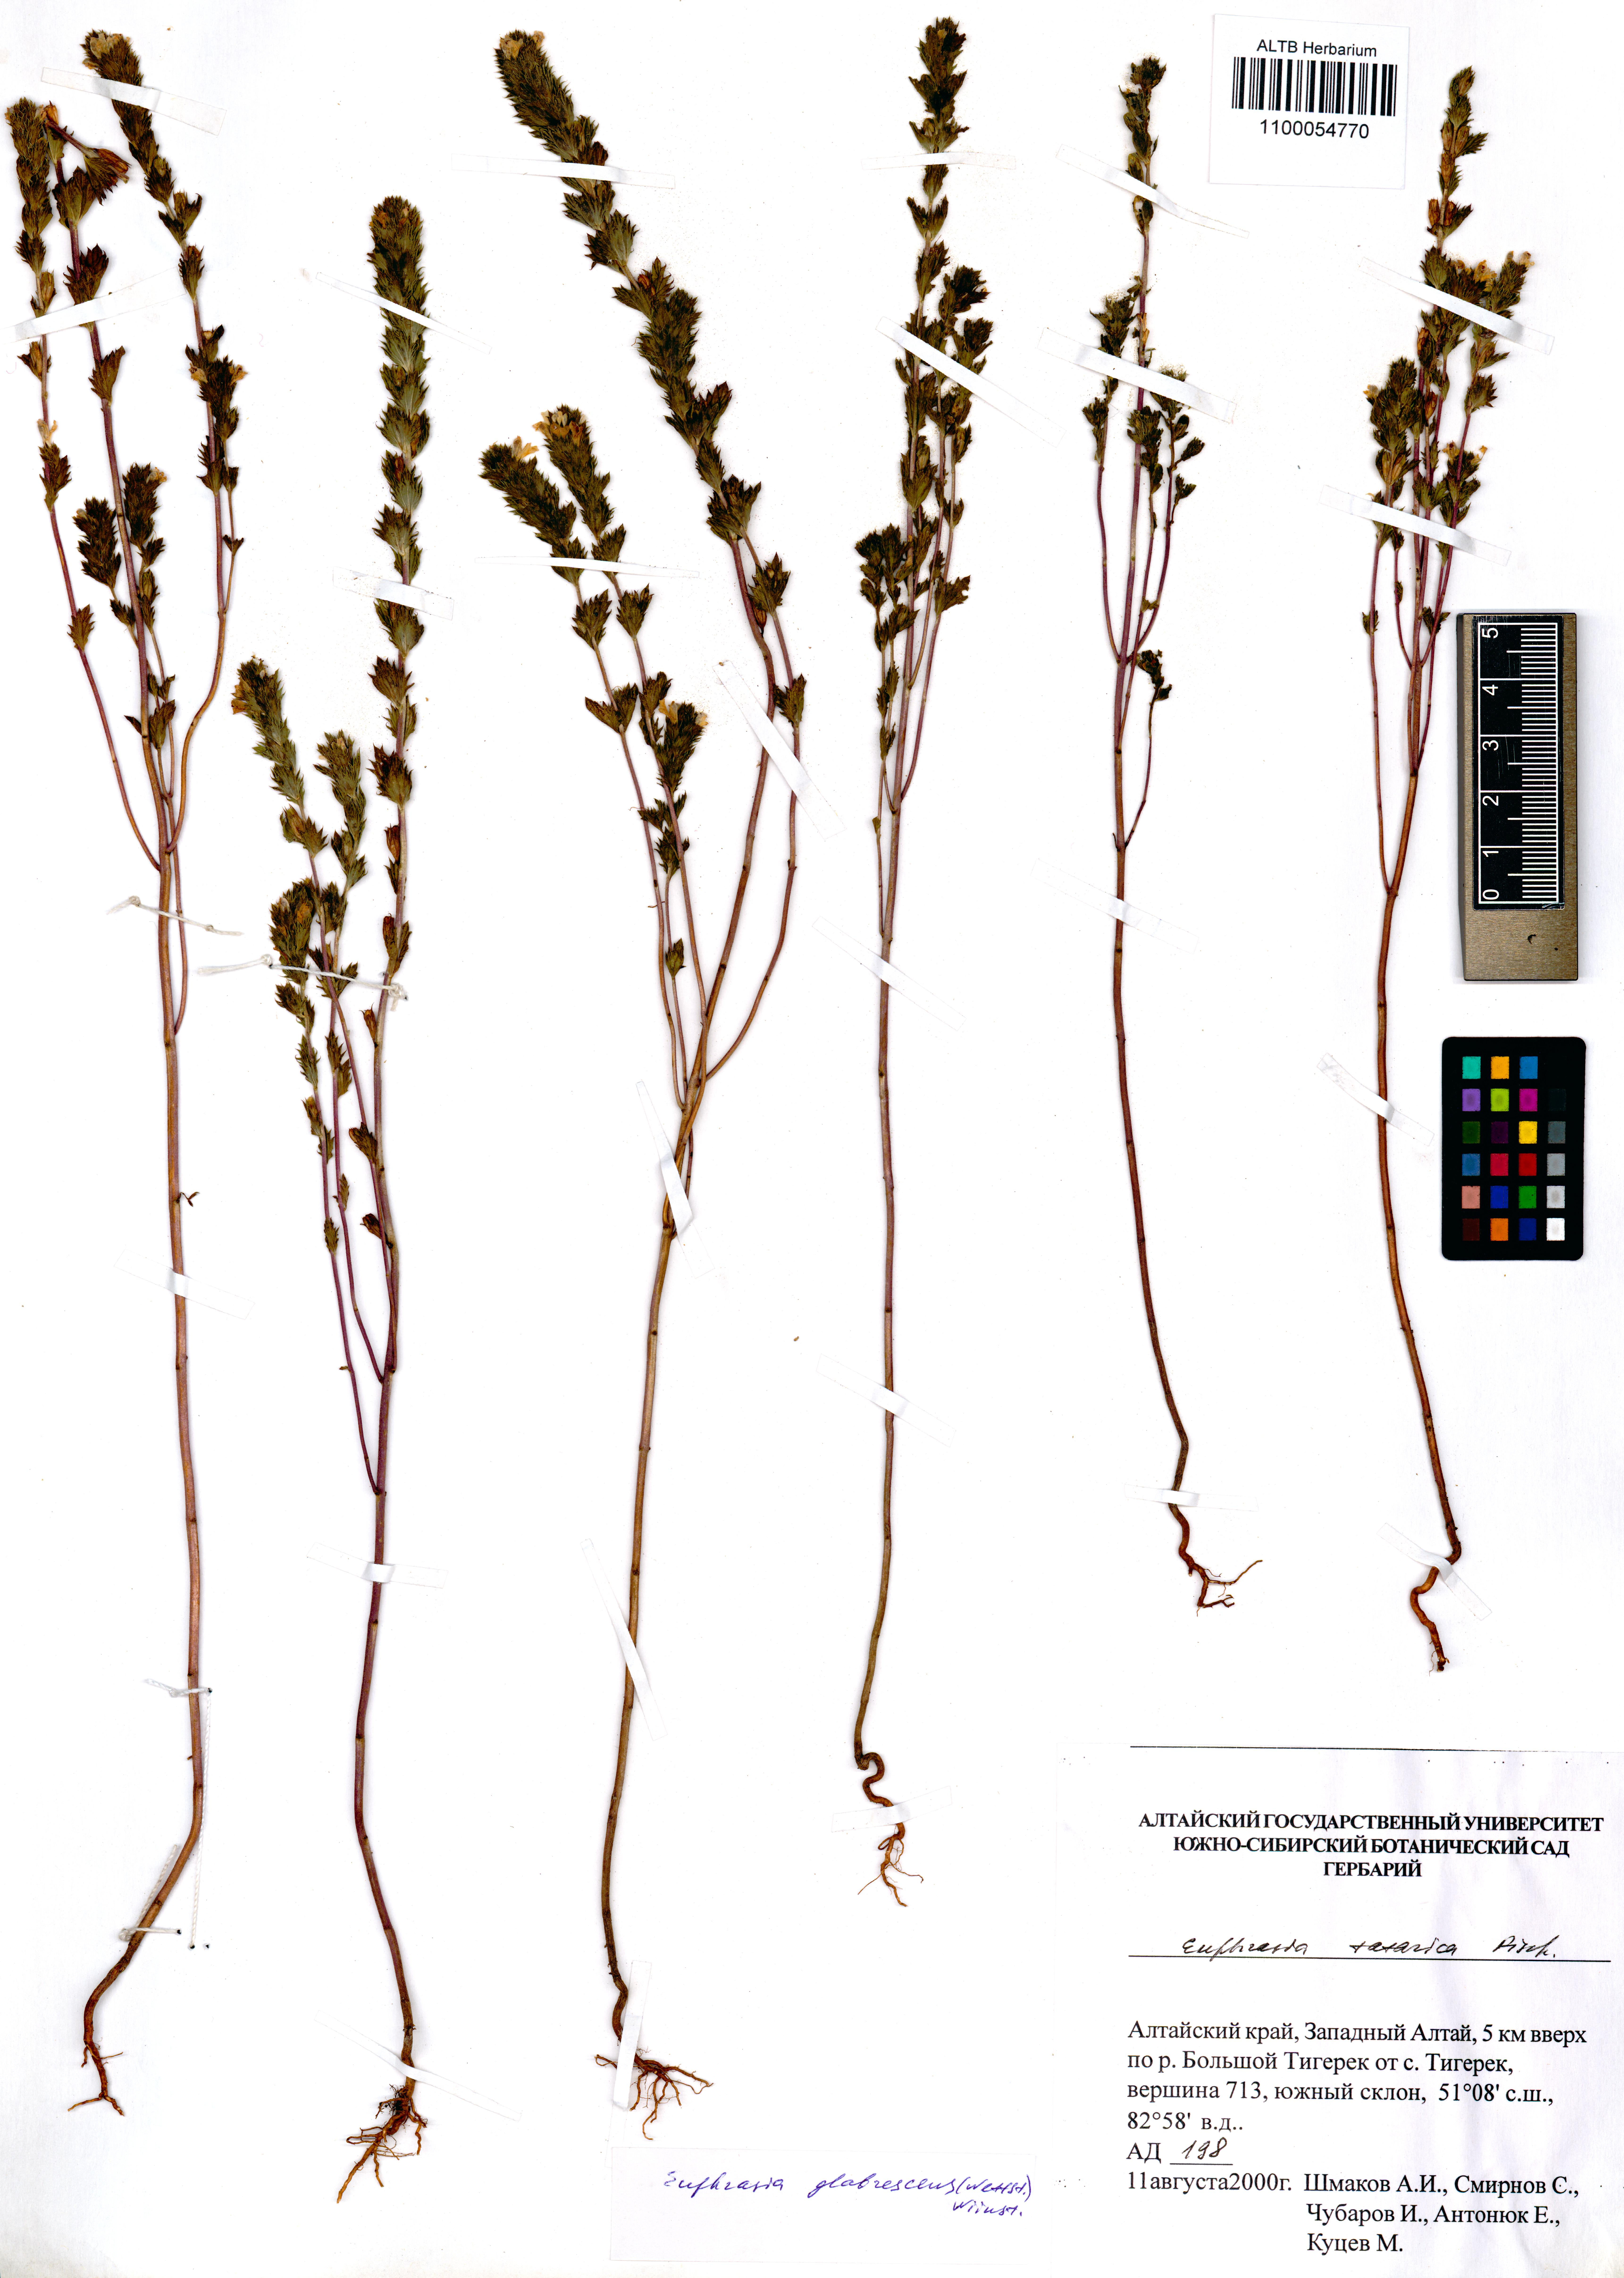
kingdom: Plantae
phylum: Tracheophyta
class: Magnoliopsida
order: Lamiales
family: Orobanchaceae
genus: Euphrasia
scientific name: Euphrasia micrantha
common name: Northern eyebright
